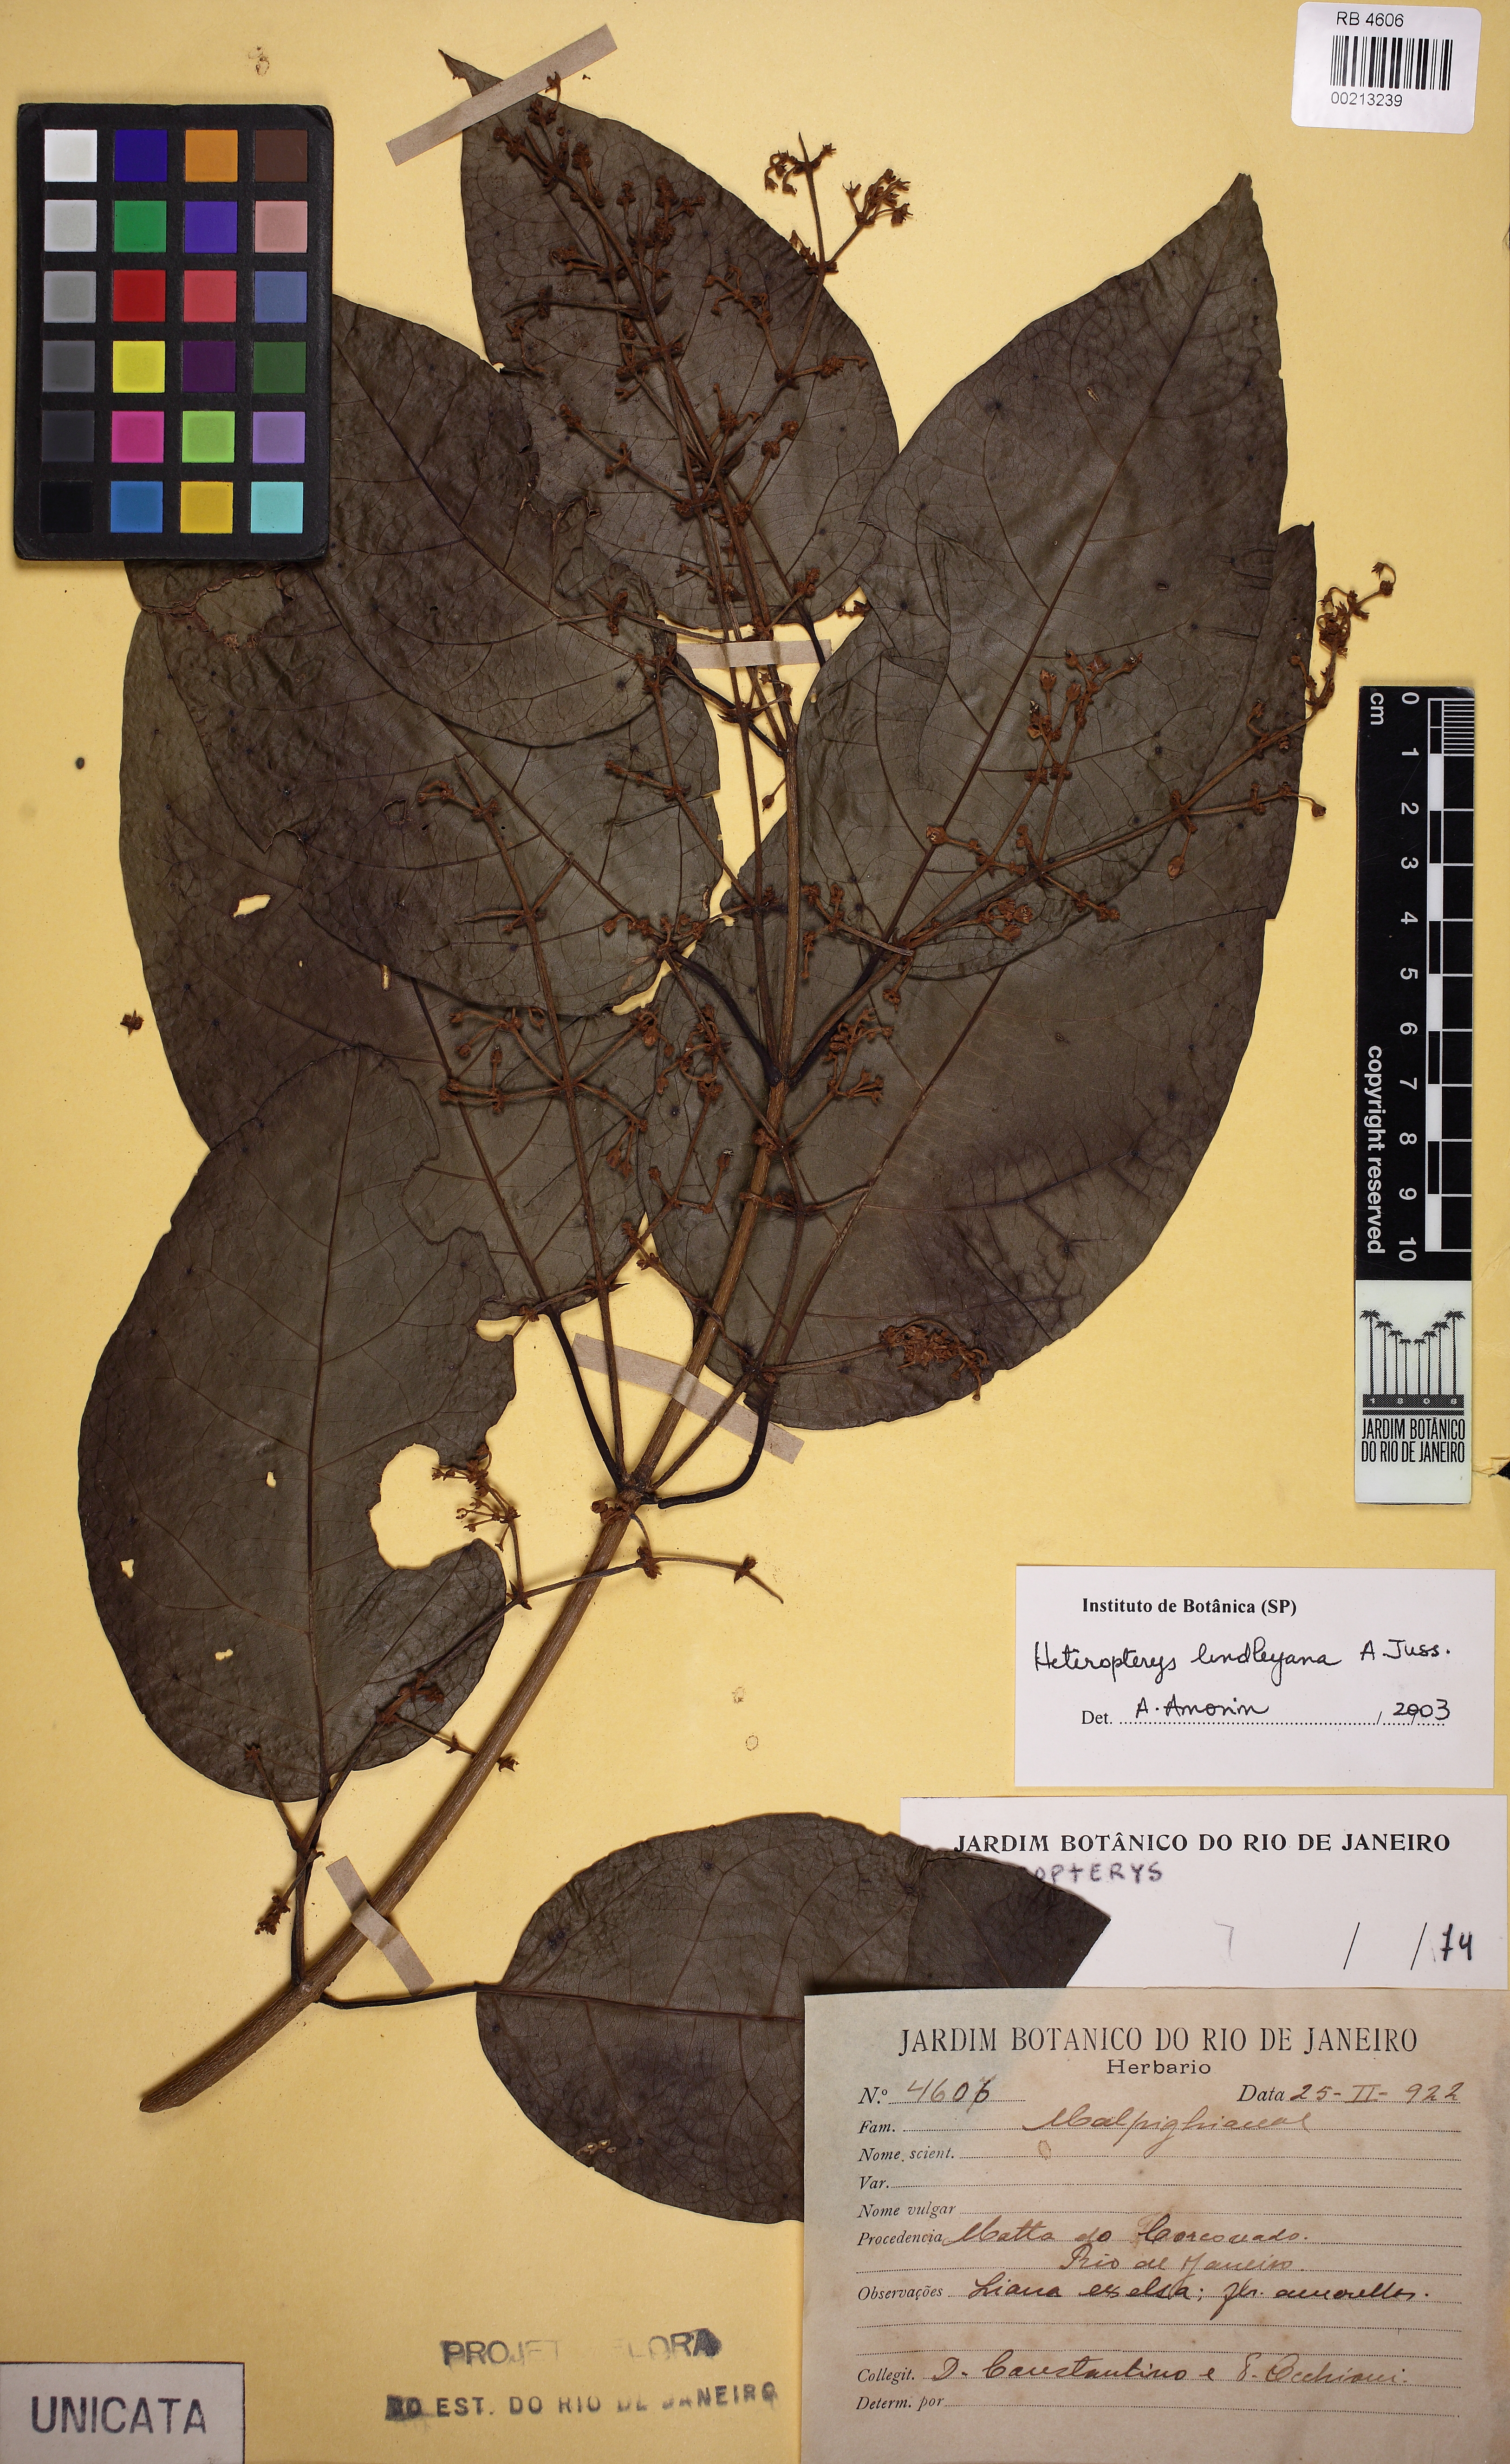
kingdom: Plantae
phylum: Tracheophyta
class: Magnoliopsida
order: Malpighiales
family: Malpighiaceae
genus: Heteropterys
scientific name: Heteropterys lindleyana
